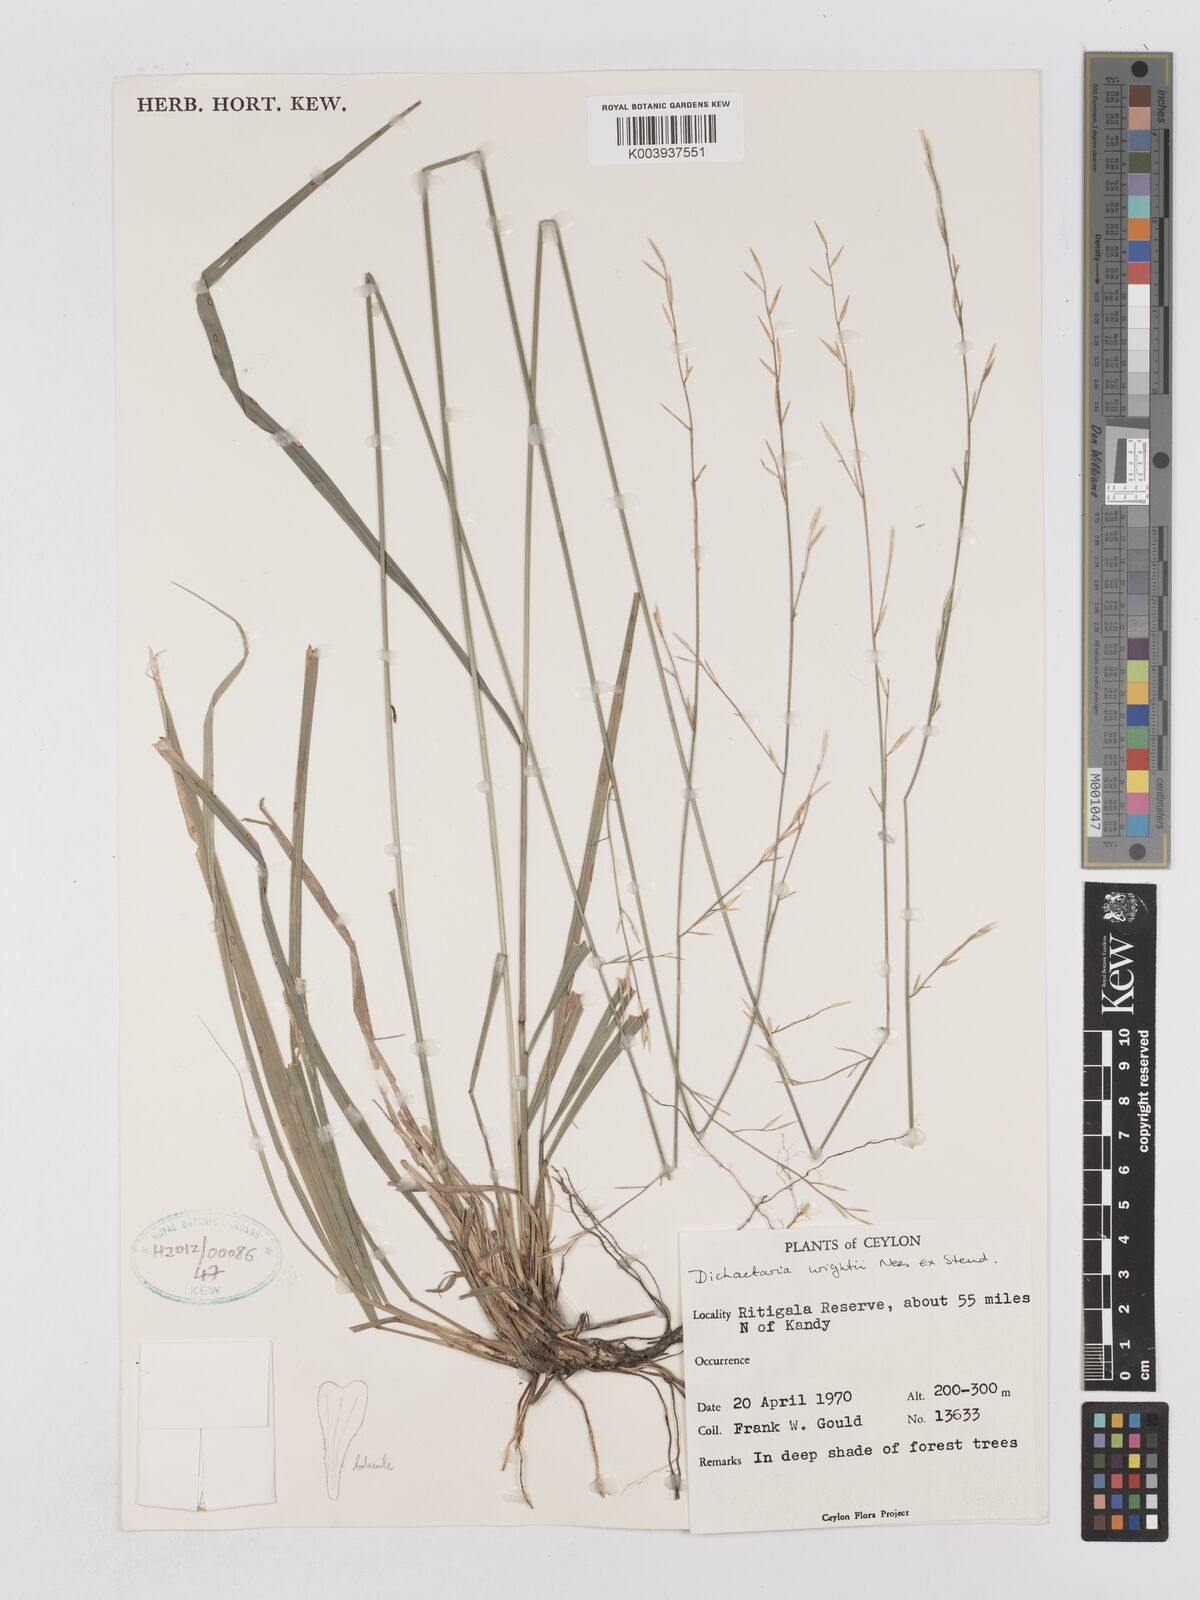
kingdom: Plantae
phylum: Tracheophyta
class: Liliopsida
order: Poales
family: Poaceae
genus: Dichaetaria
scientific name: Dichaetaria wightii
